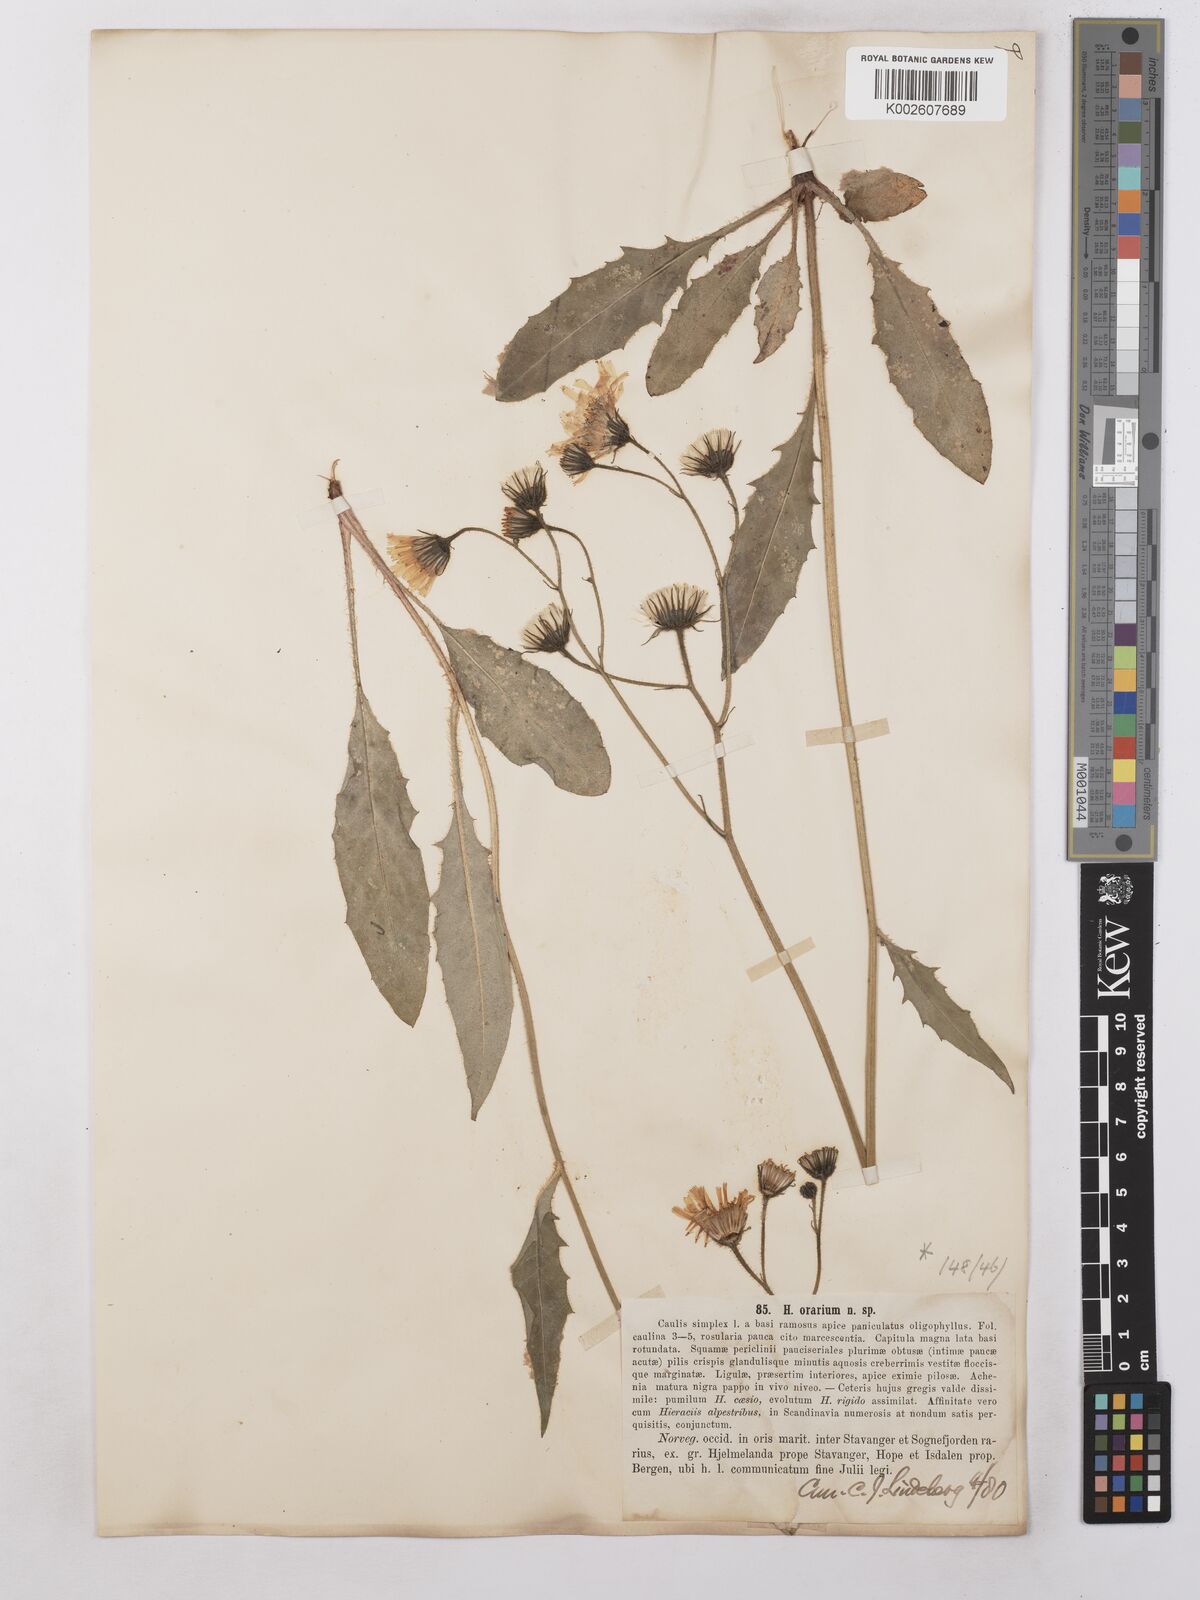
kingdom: Plantae
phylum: Tracheophyta
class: Magnoliopsida
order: Asterales
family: Asteraceae
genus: Hieracium
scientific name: Hieracium subramosum
